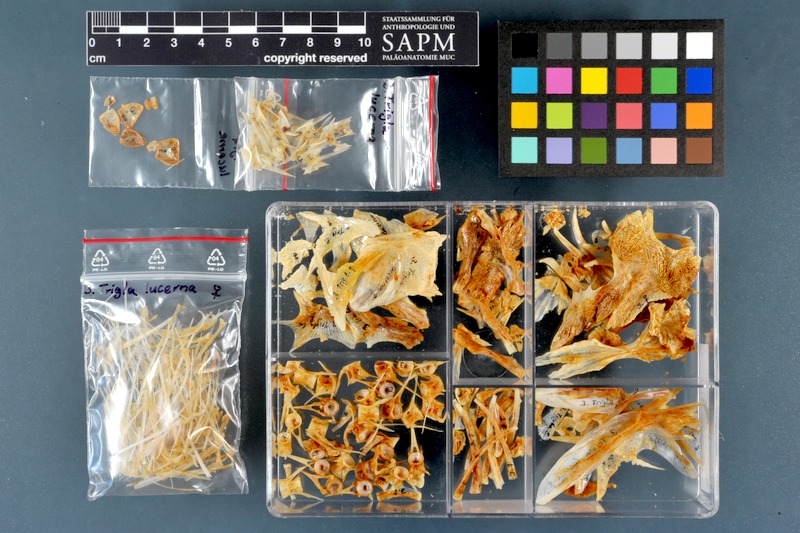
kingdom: Animalia
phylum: Chordata
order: Scorpaeniformes
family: Triglidae
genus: Chelidonichthys
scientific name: Chelidonichthys lucerna
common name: Tub gurnard
